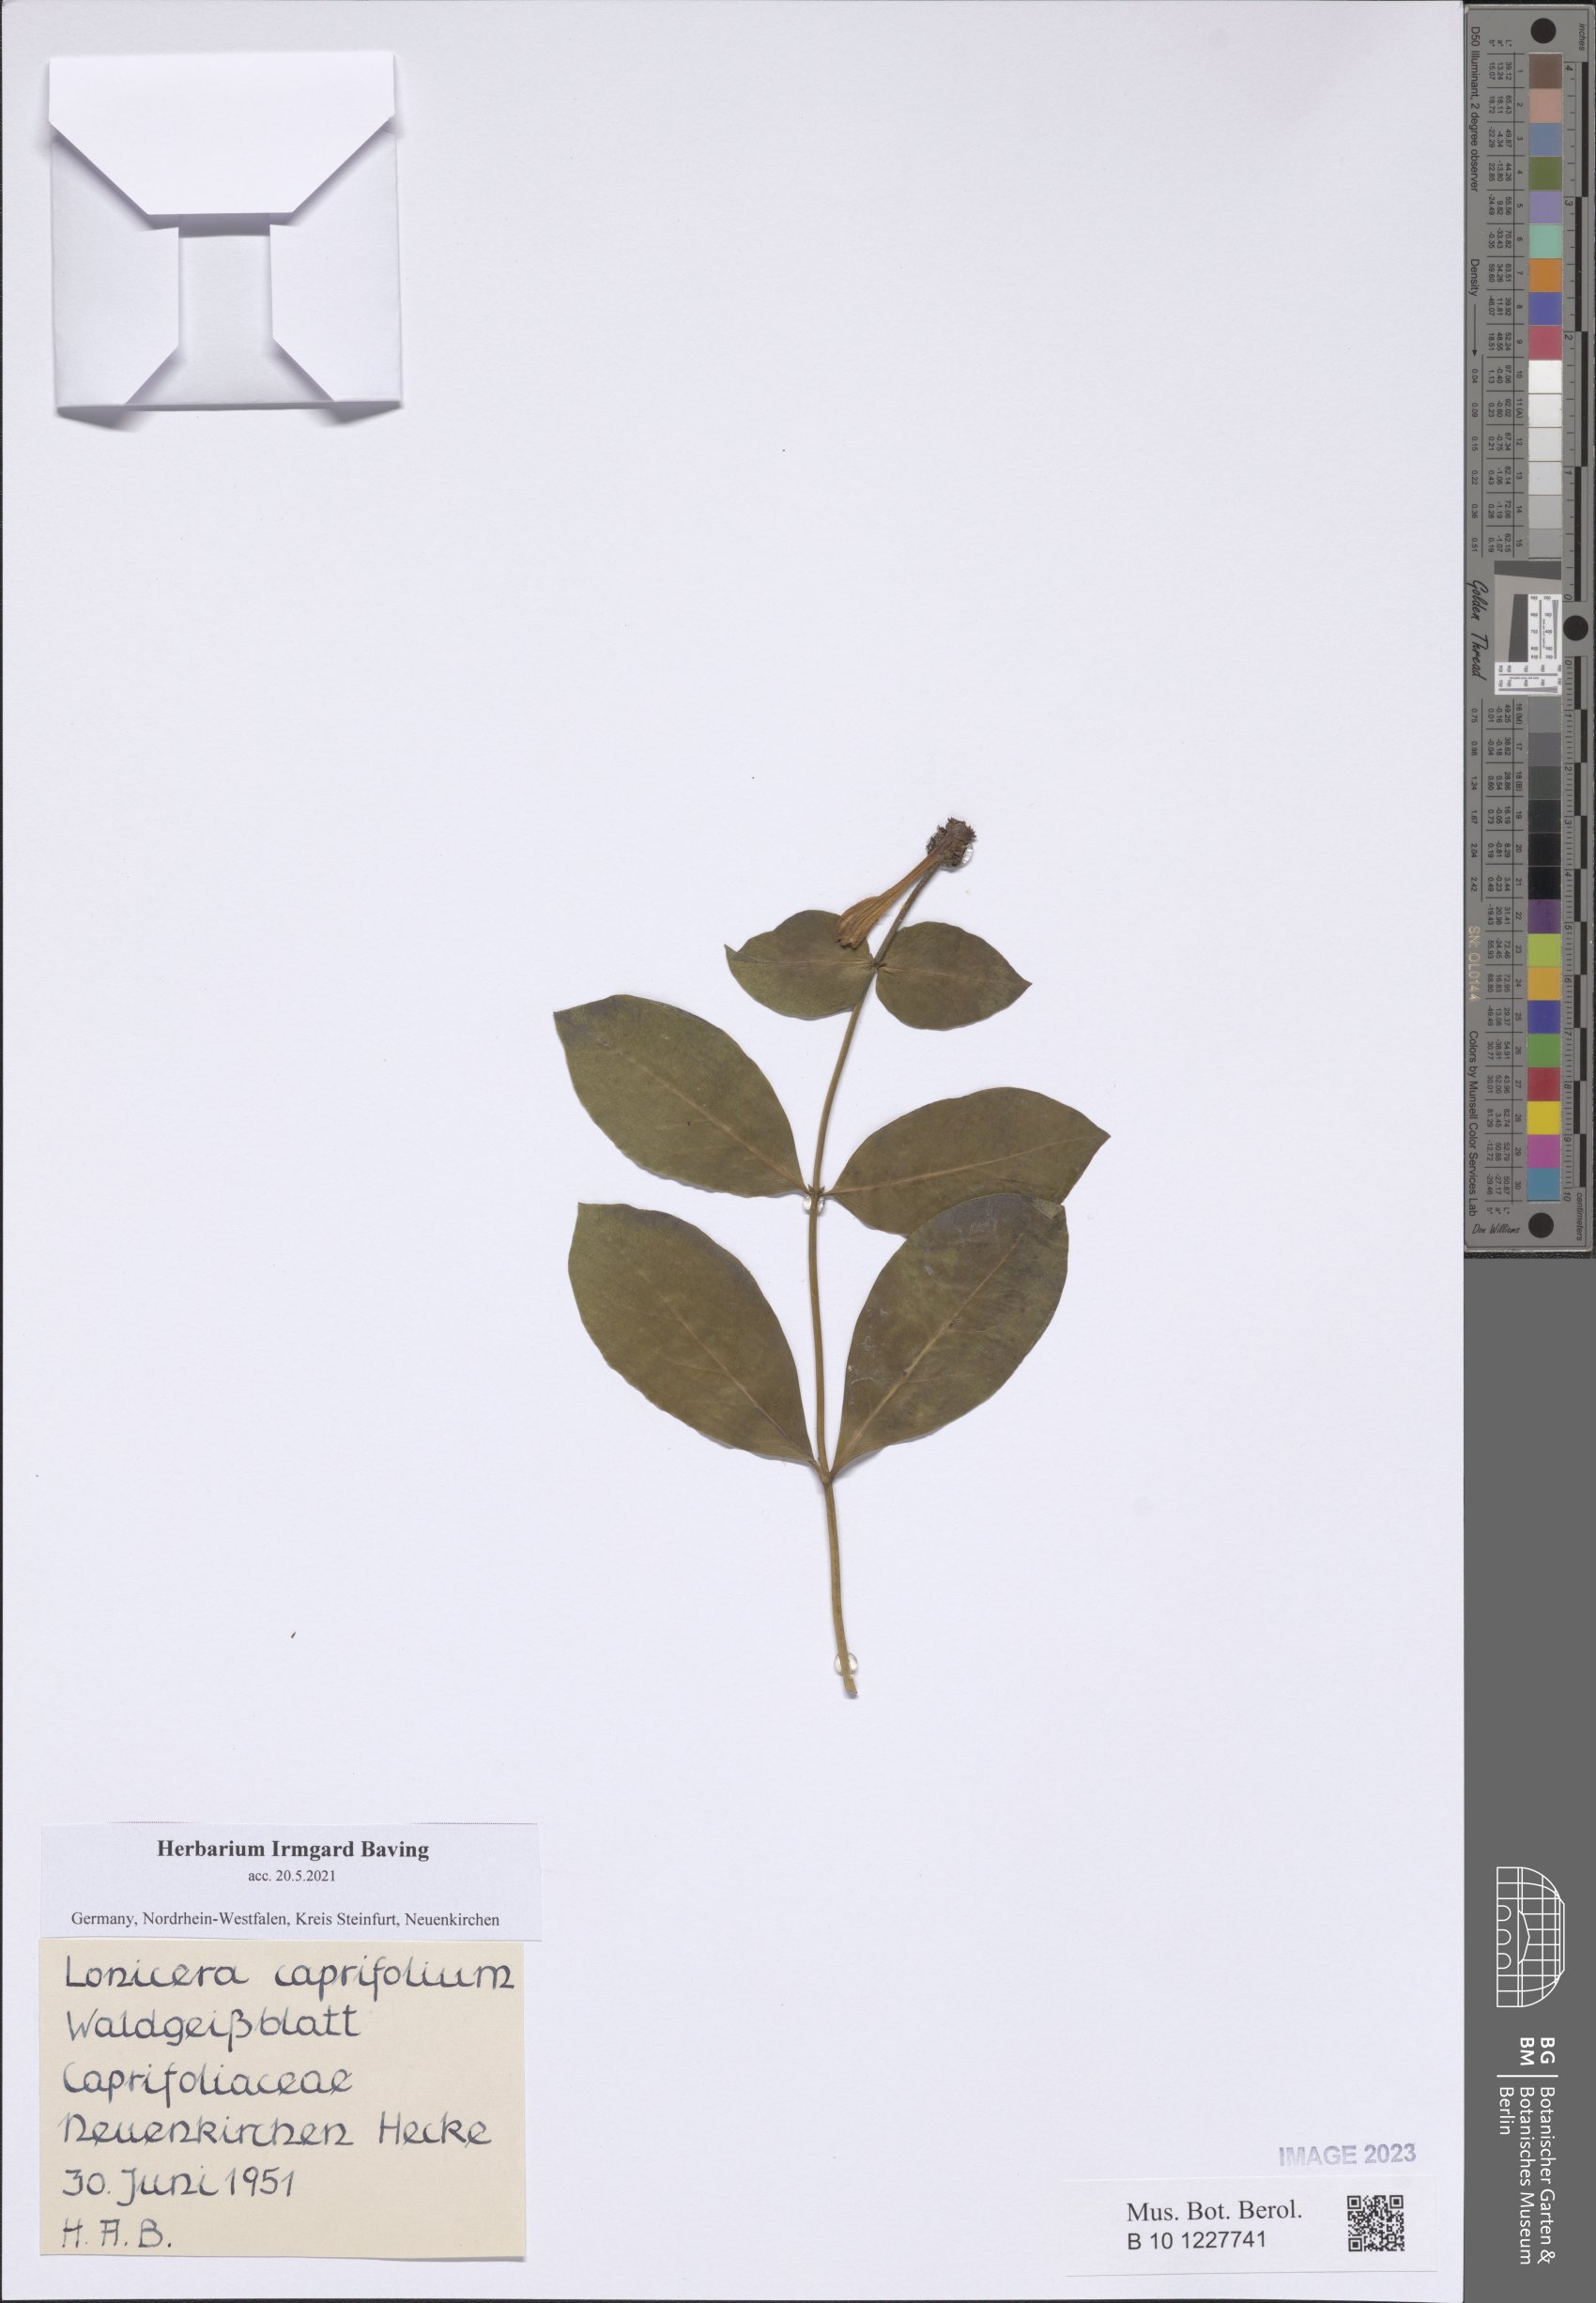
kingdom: Plantae
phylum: Tracheophyta
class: Magnoliopsida
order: Dipsacales
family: Caprifoliaceae
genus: Lonicera
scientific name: Lonicera caprifolium
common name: Perfoliate honeysuckle
